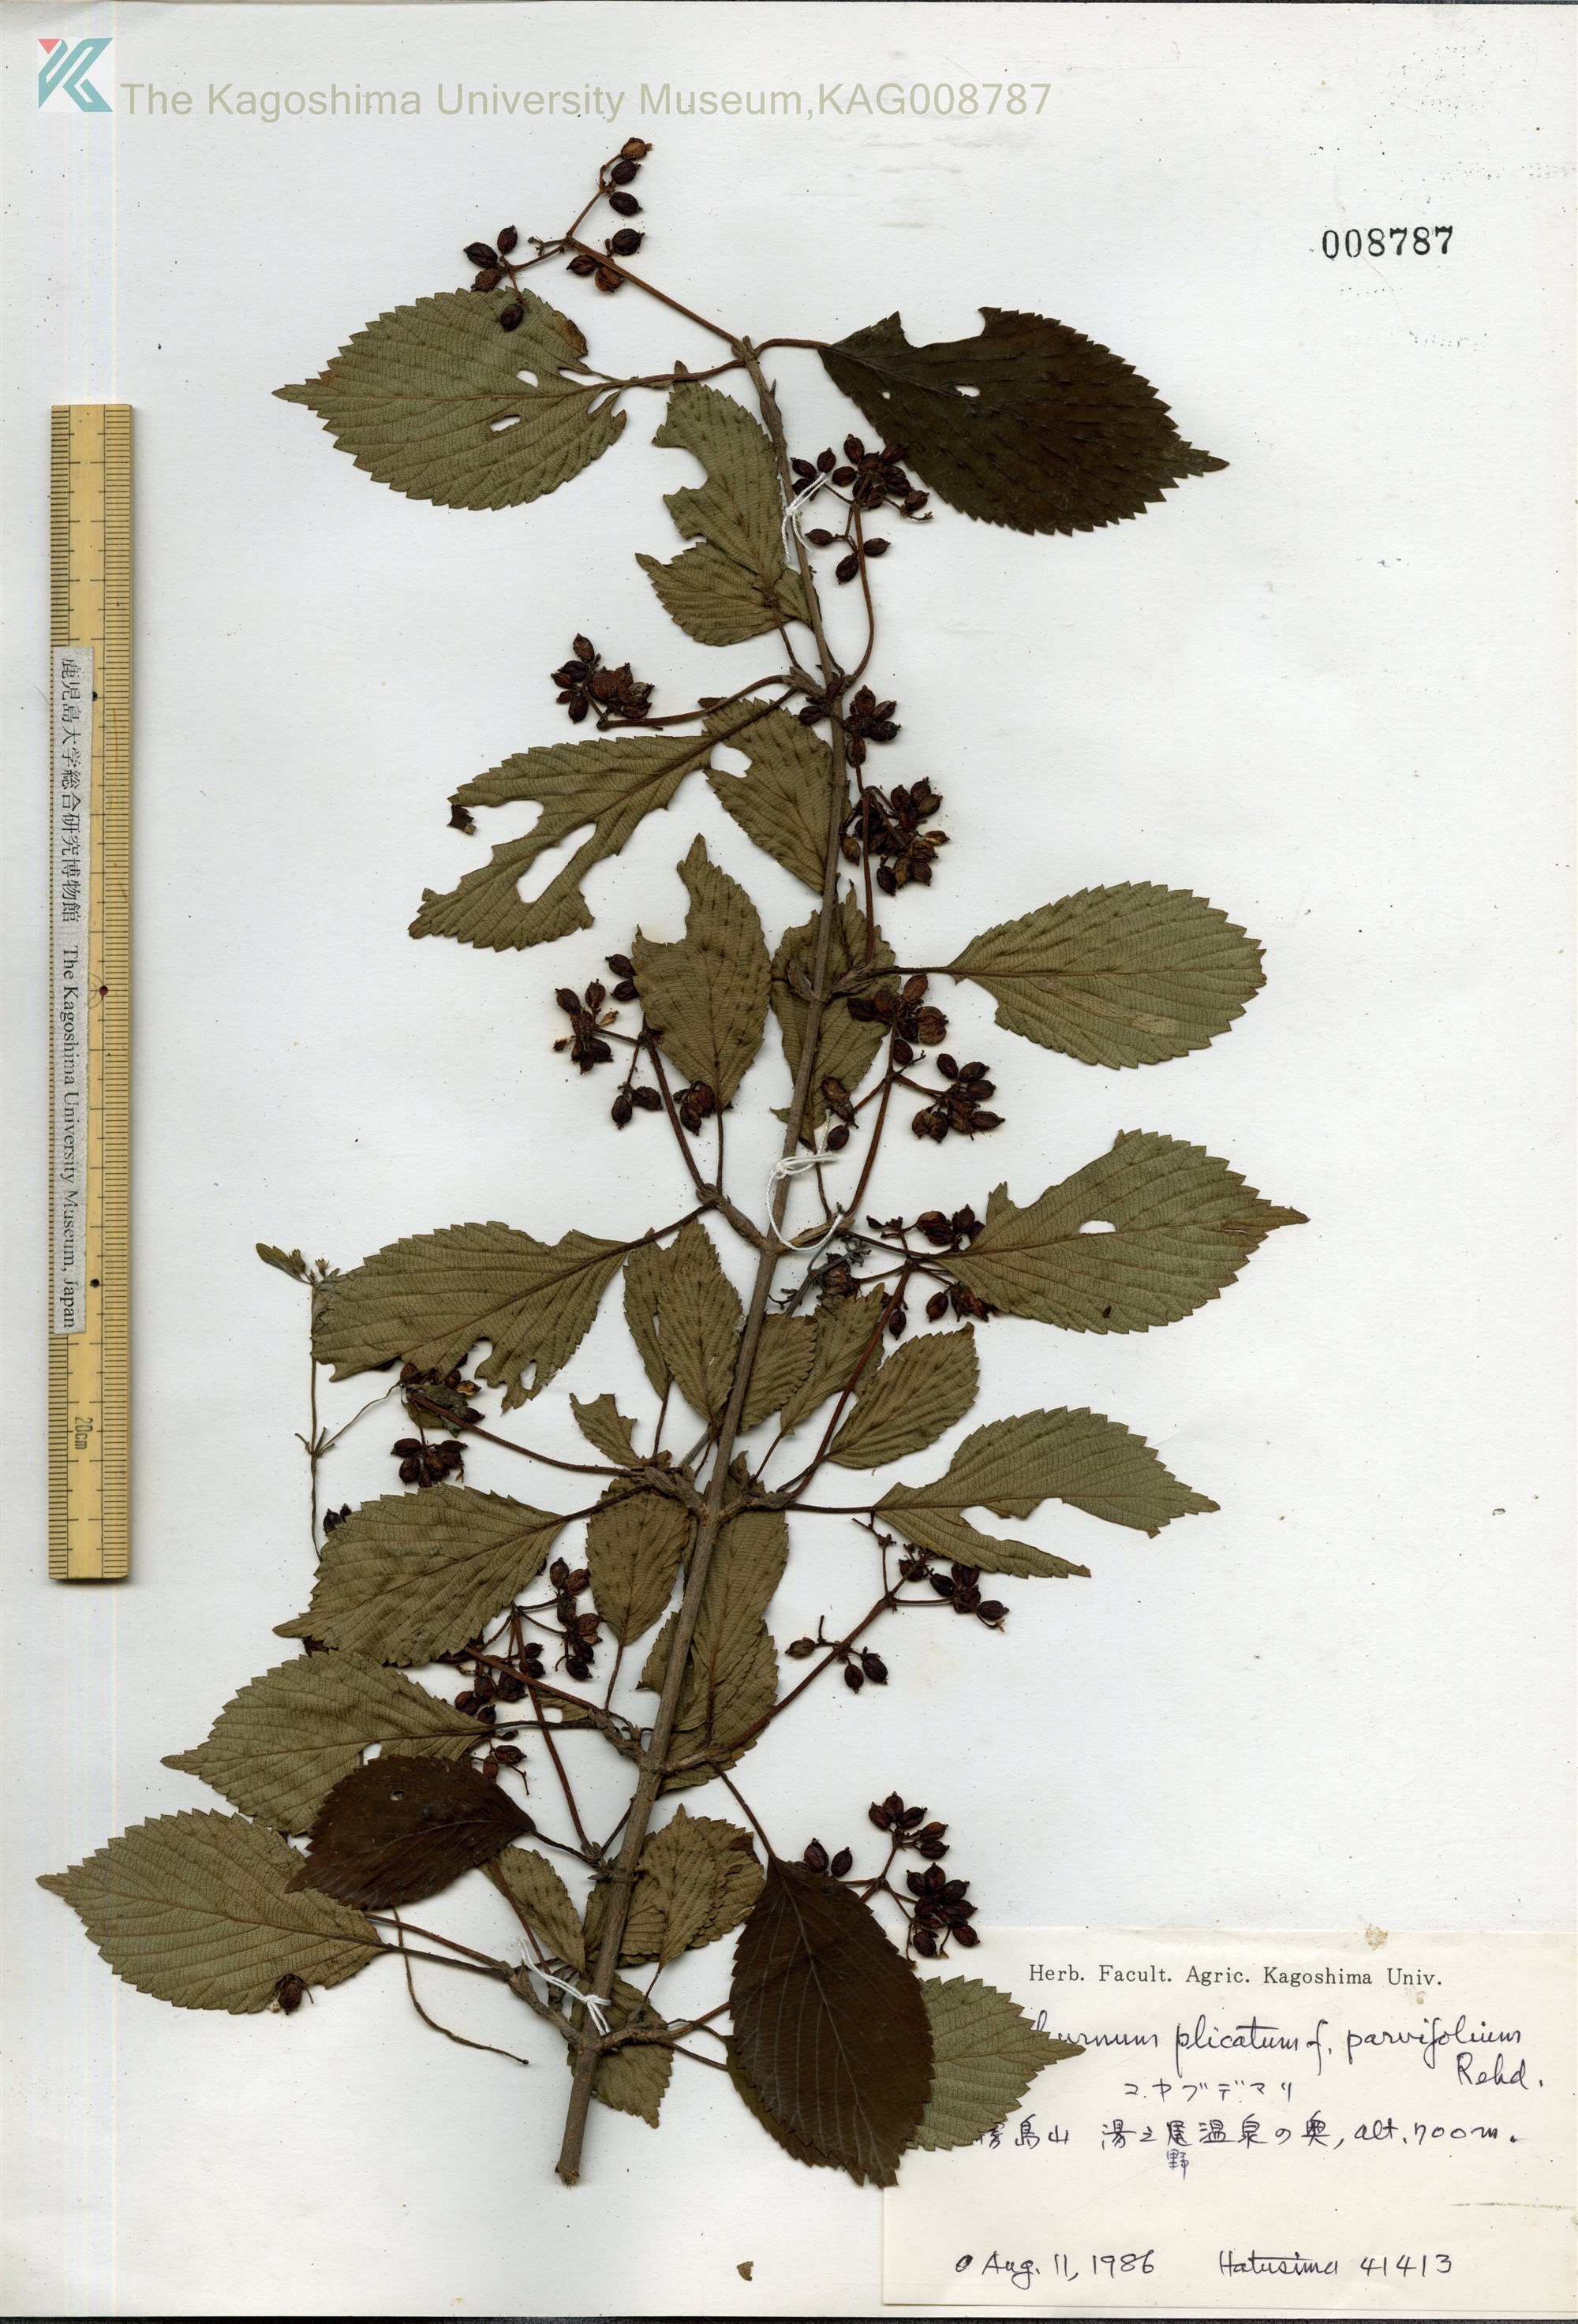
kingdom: Plantae
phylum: Tracheophyta
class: Magnoliopsida
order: Dipsacales
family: Viburnaceae
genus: Viburnum
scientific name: Viburnum plicatum
